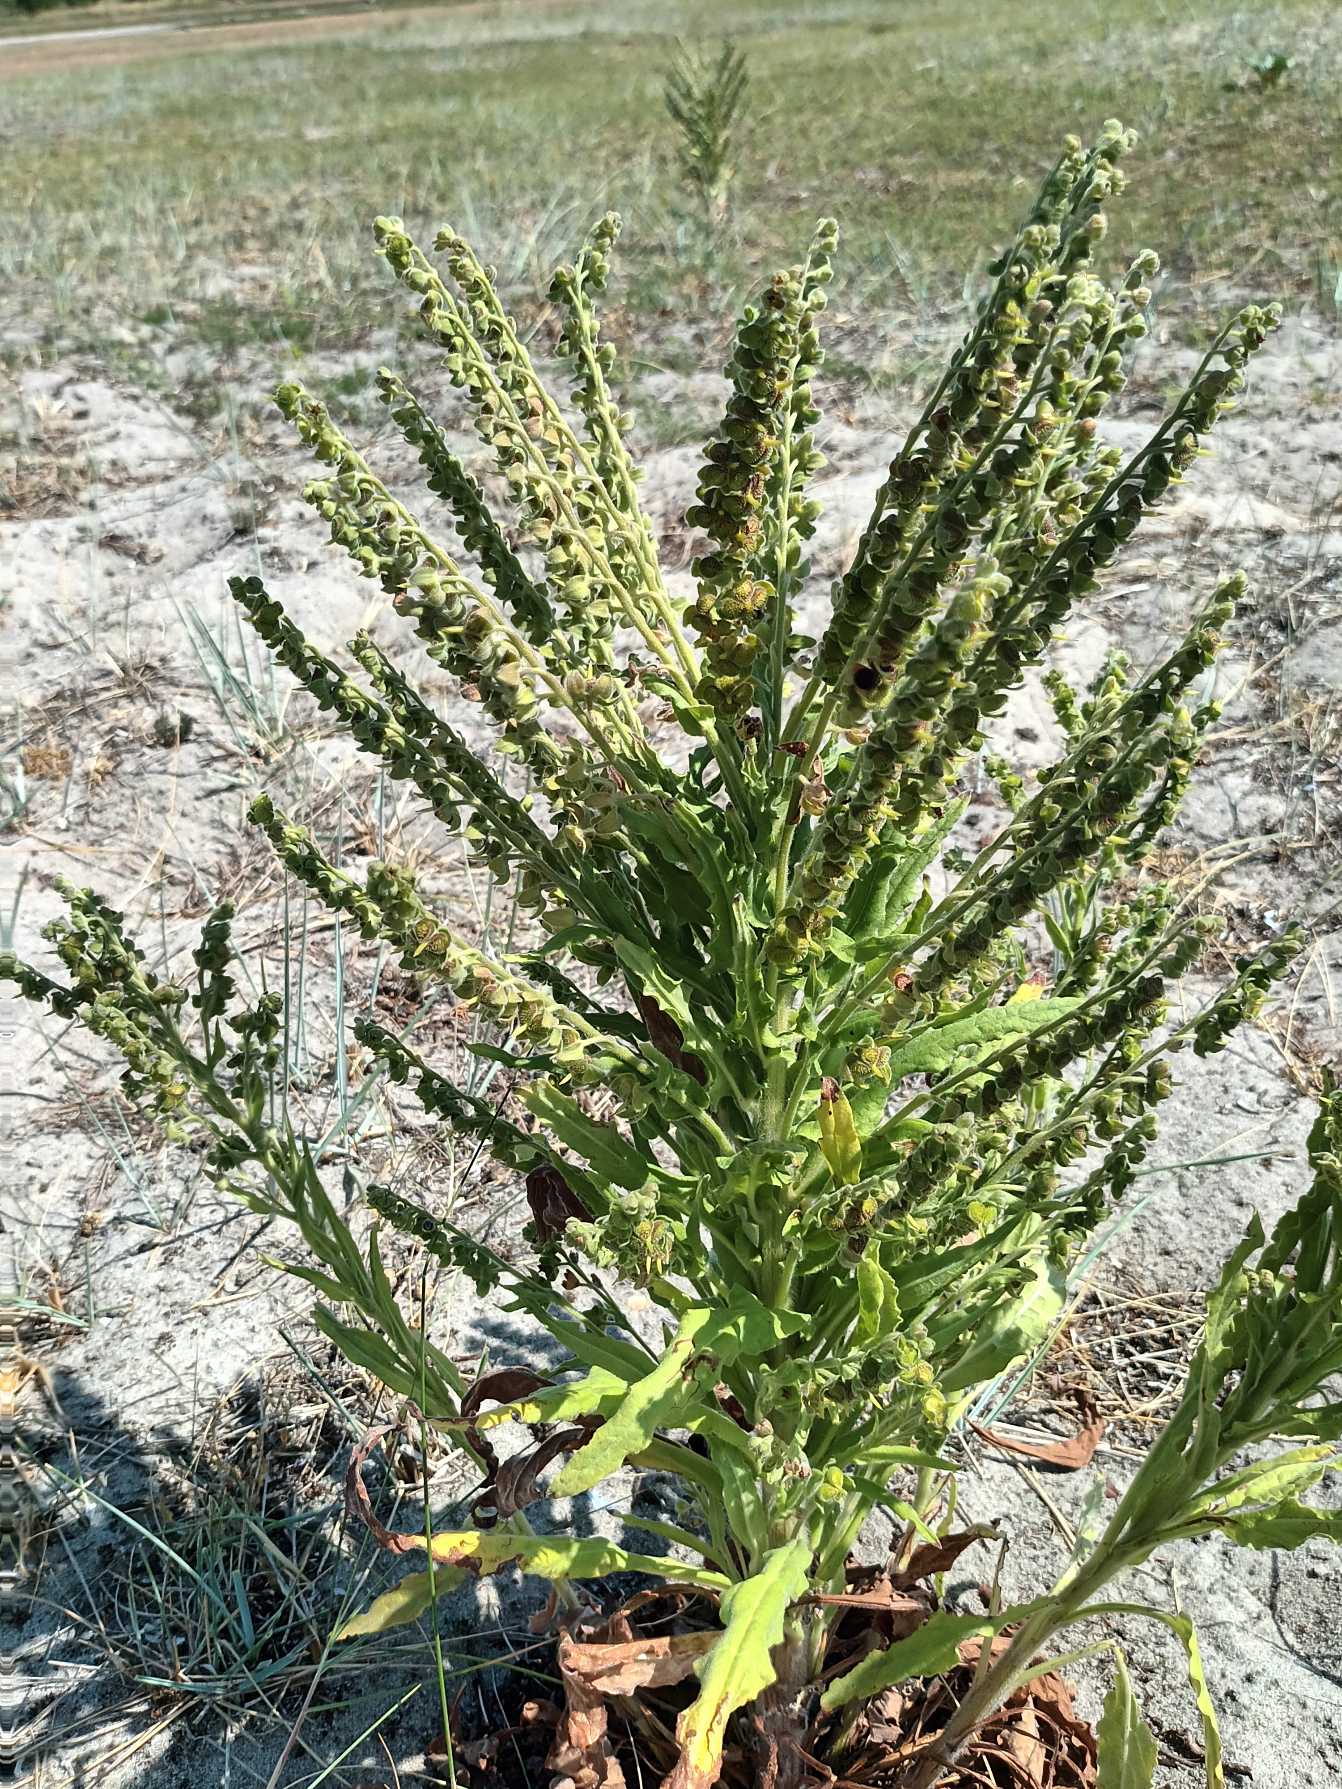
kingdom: Plantae
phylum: Tracheophyta
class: Magnoliopsida
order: Boraginales
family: Boraginaceae
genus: Cynoglossum
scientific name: Cynoglossum officinale
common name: Hundetunge
